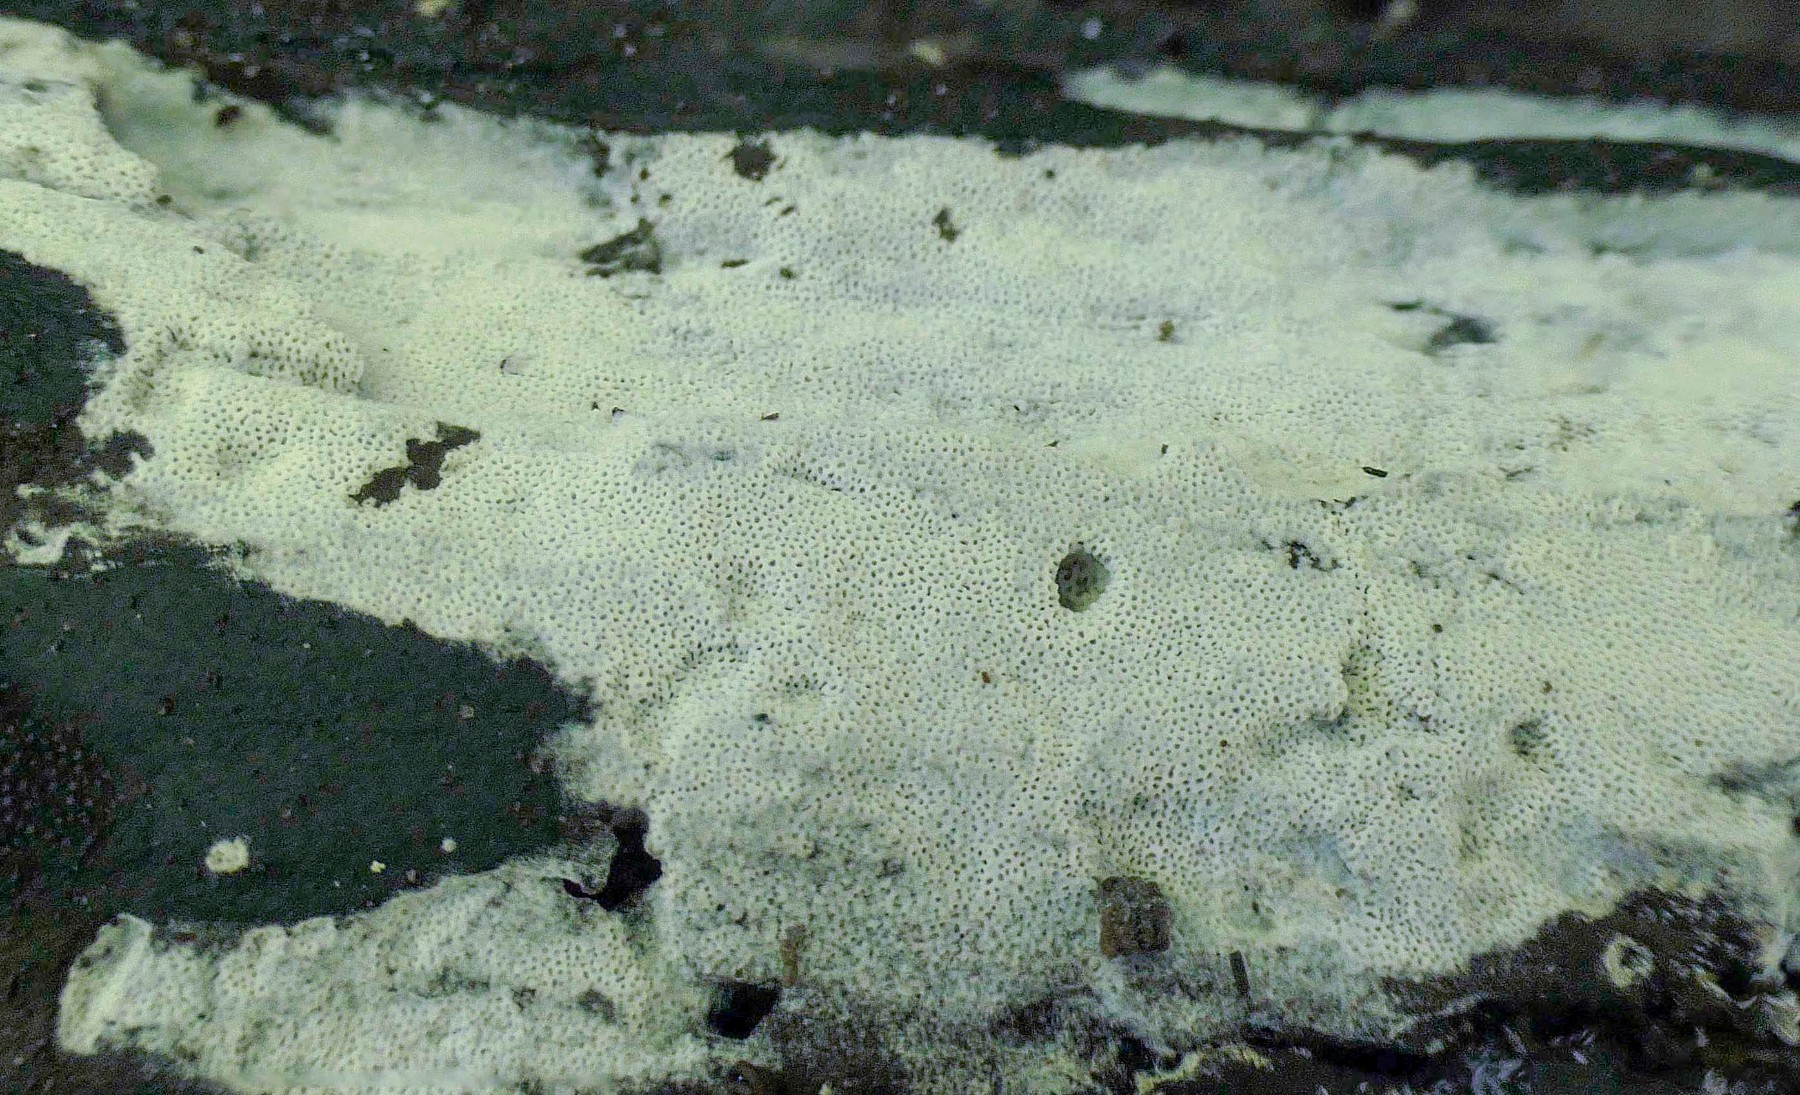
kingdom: Fungi
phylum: Basidiomycota
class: Agaricomycetes
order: Polyporales
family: Irpicaceae
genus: Ceriporia
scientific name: Ceriporia
